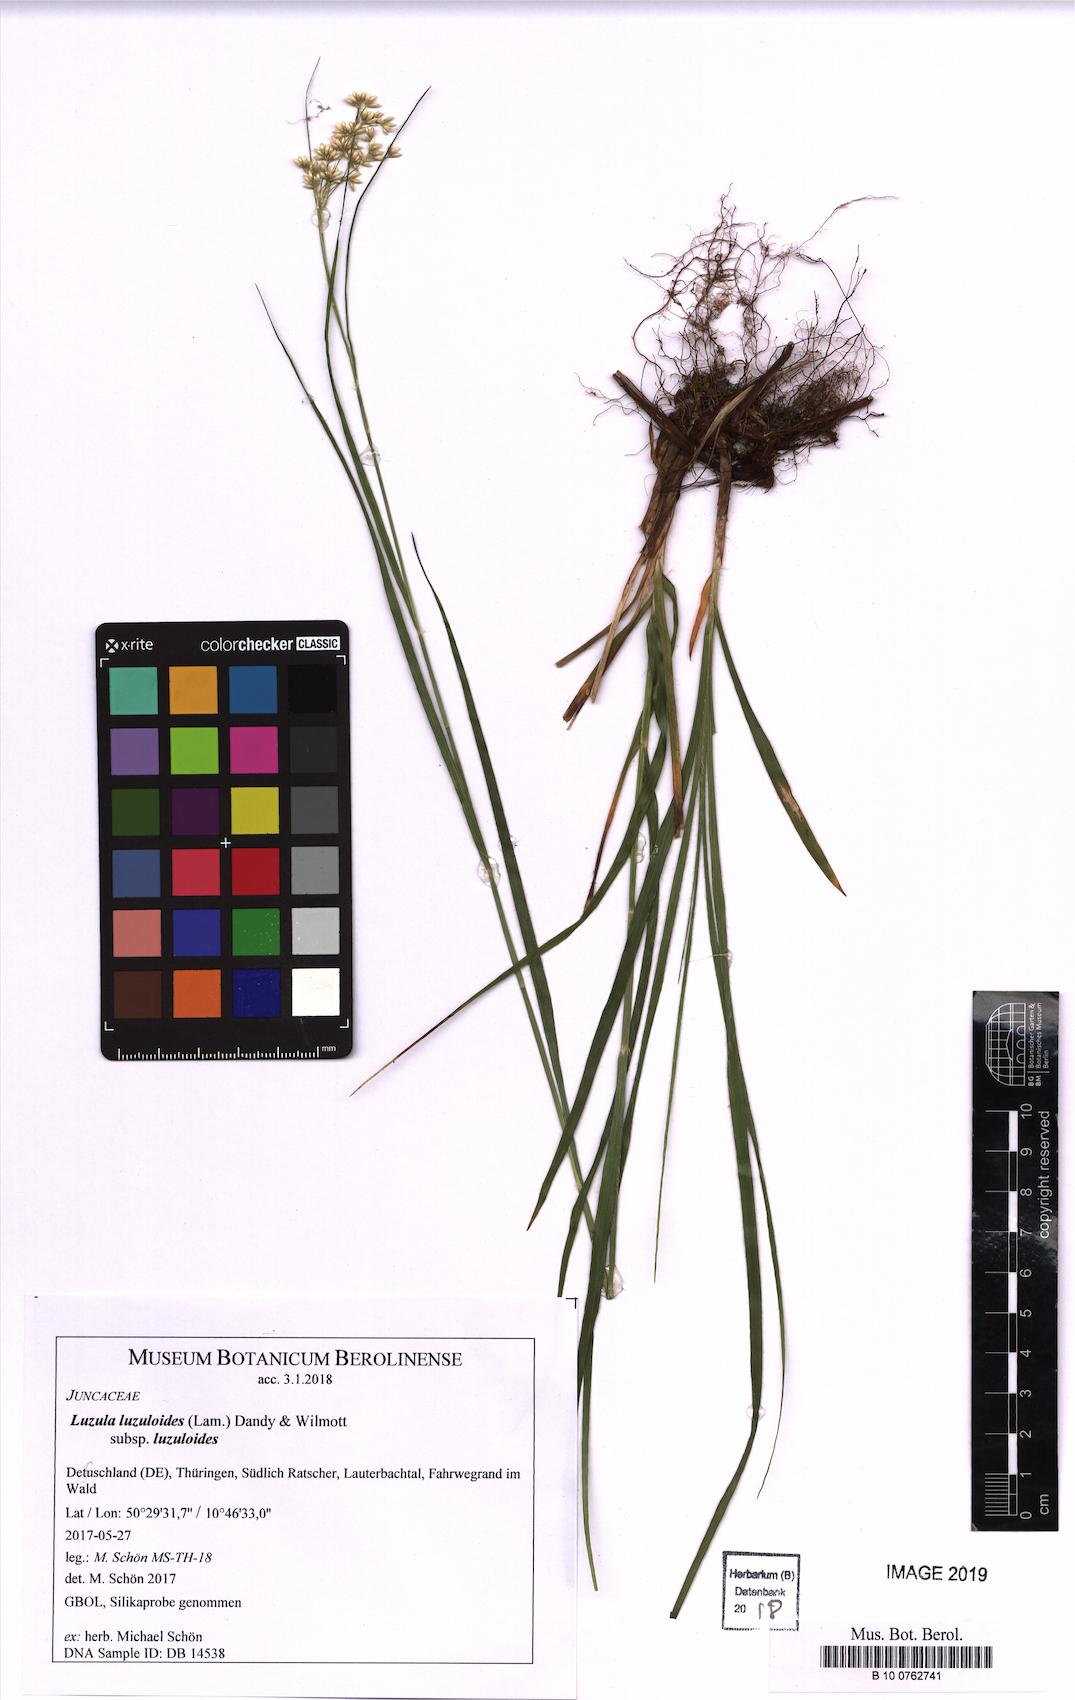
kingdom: Plantae
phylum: Tracheophyta
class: Liliopsida
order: Poales
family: Juncaceae
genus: Luzula
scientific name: Luzula luzuloides
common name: White wood-rush
